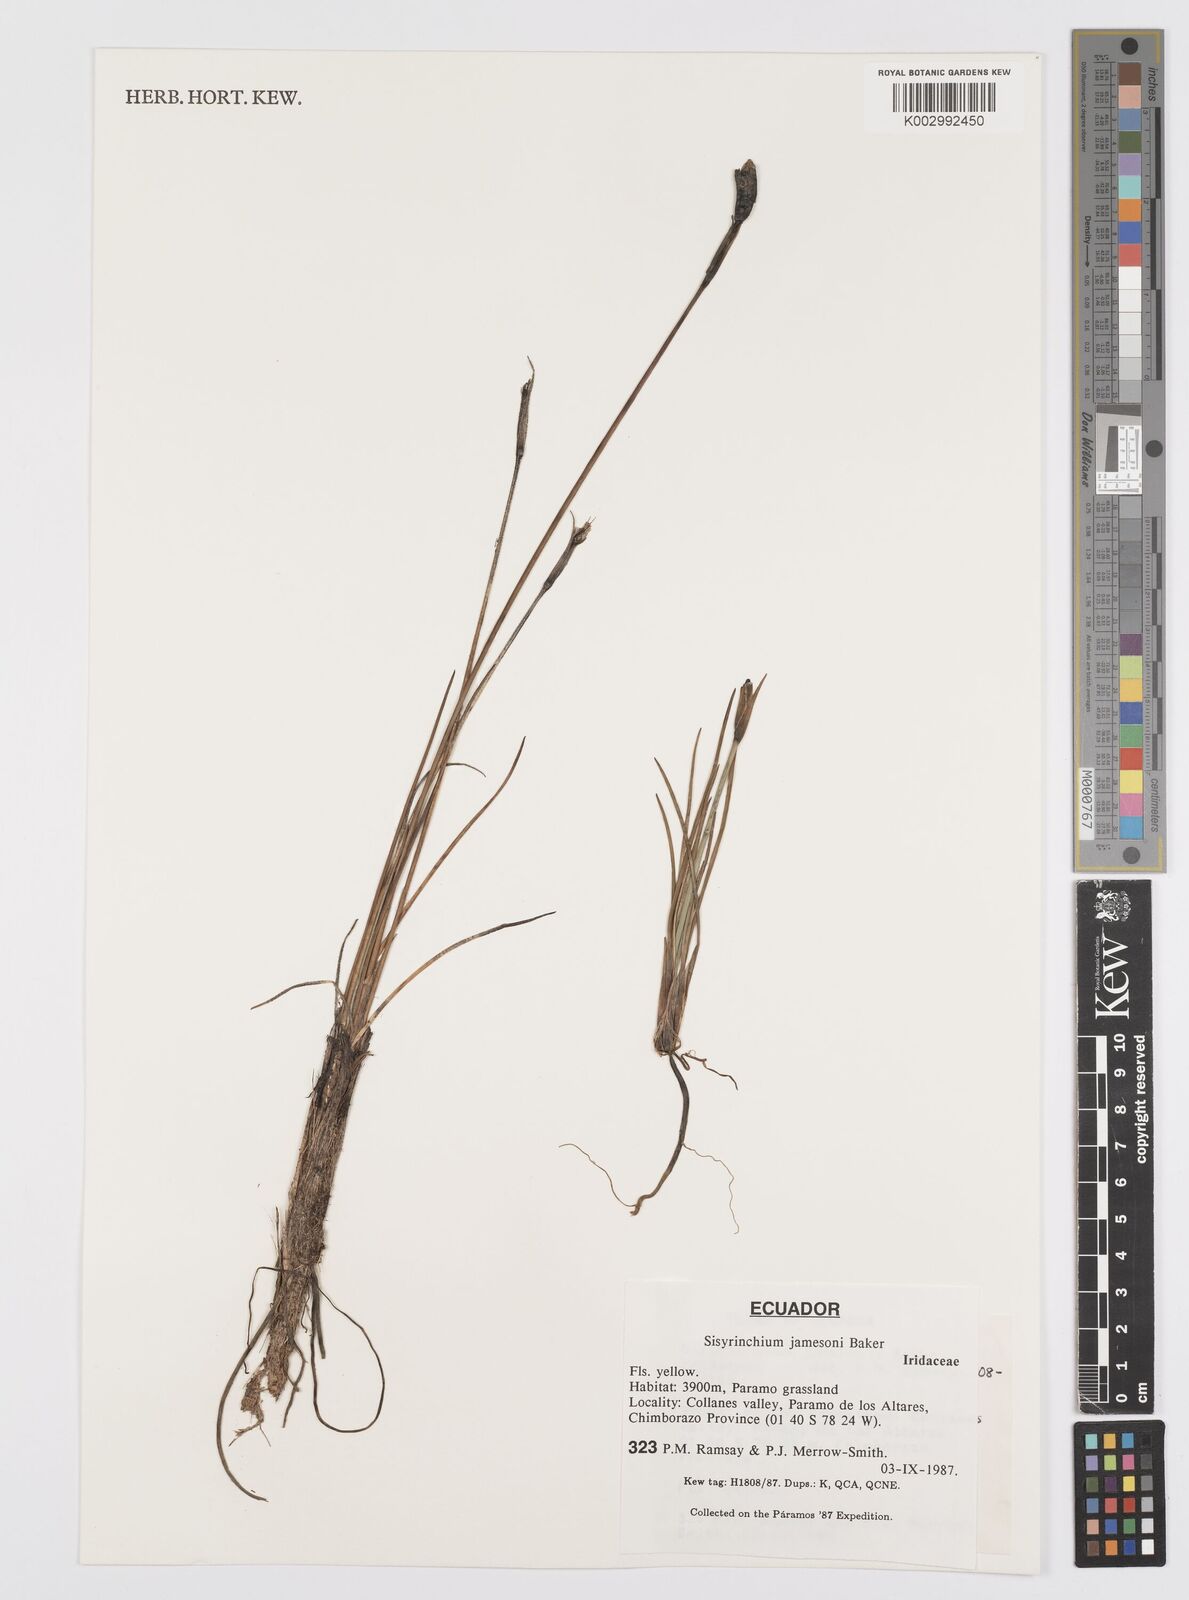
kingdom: Plantae
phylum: Tracheophyta
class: Liliopsida
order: Asparagales
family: Iridaceae
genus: Sisyrinchium
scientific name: Sisyrinchium jamesonii
